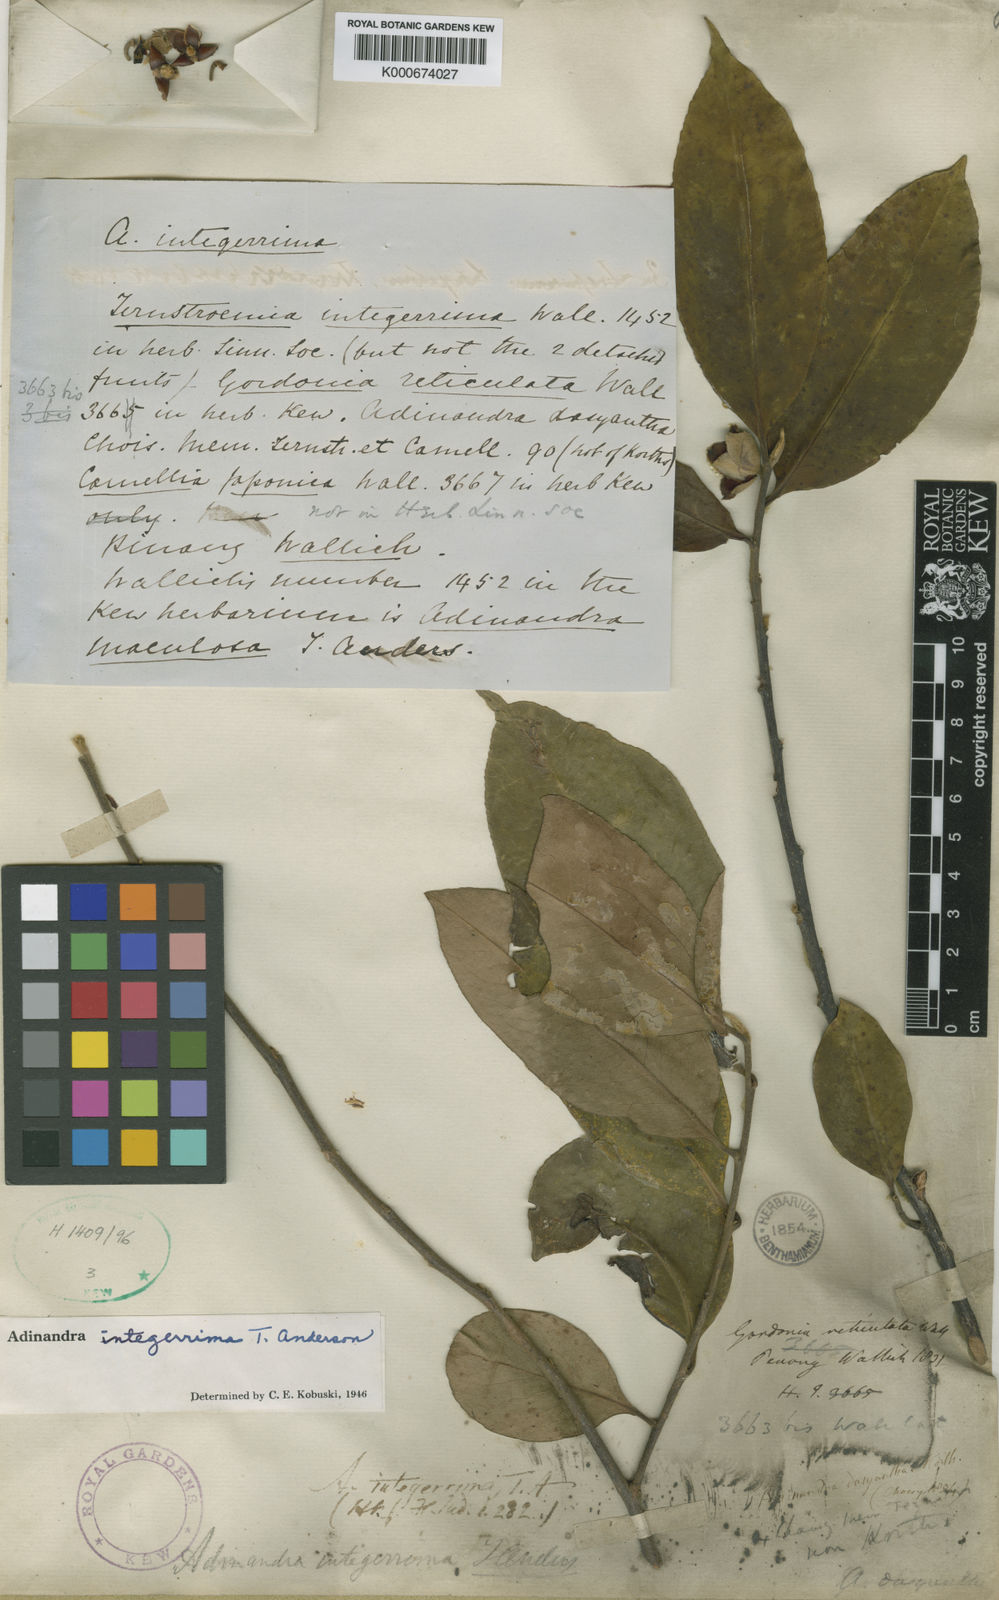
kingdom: Plantae
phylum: Tracheophyta
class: Magnoliopsida
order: Ericales
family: Pentaphylacaceae
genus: Adinandra
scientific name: Adinandra
